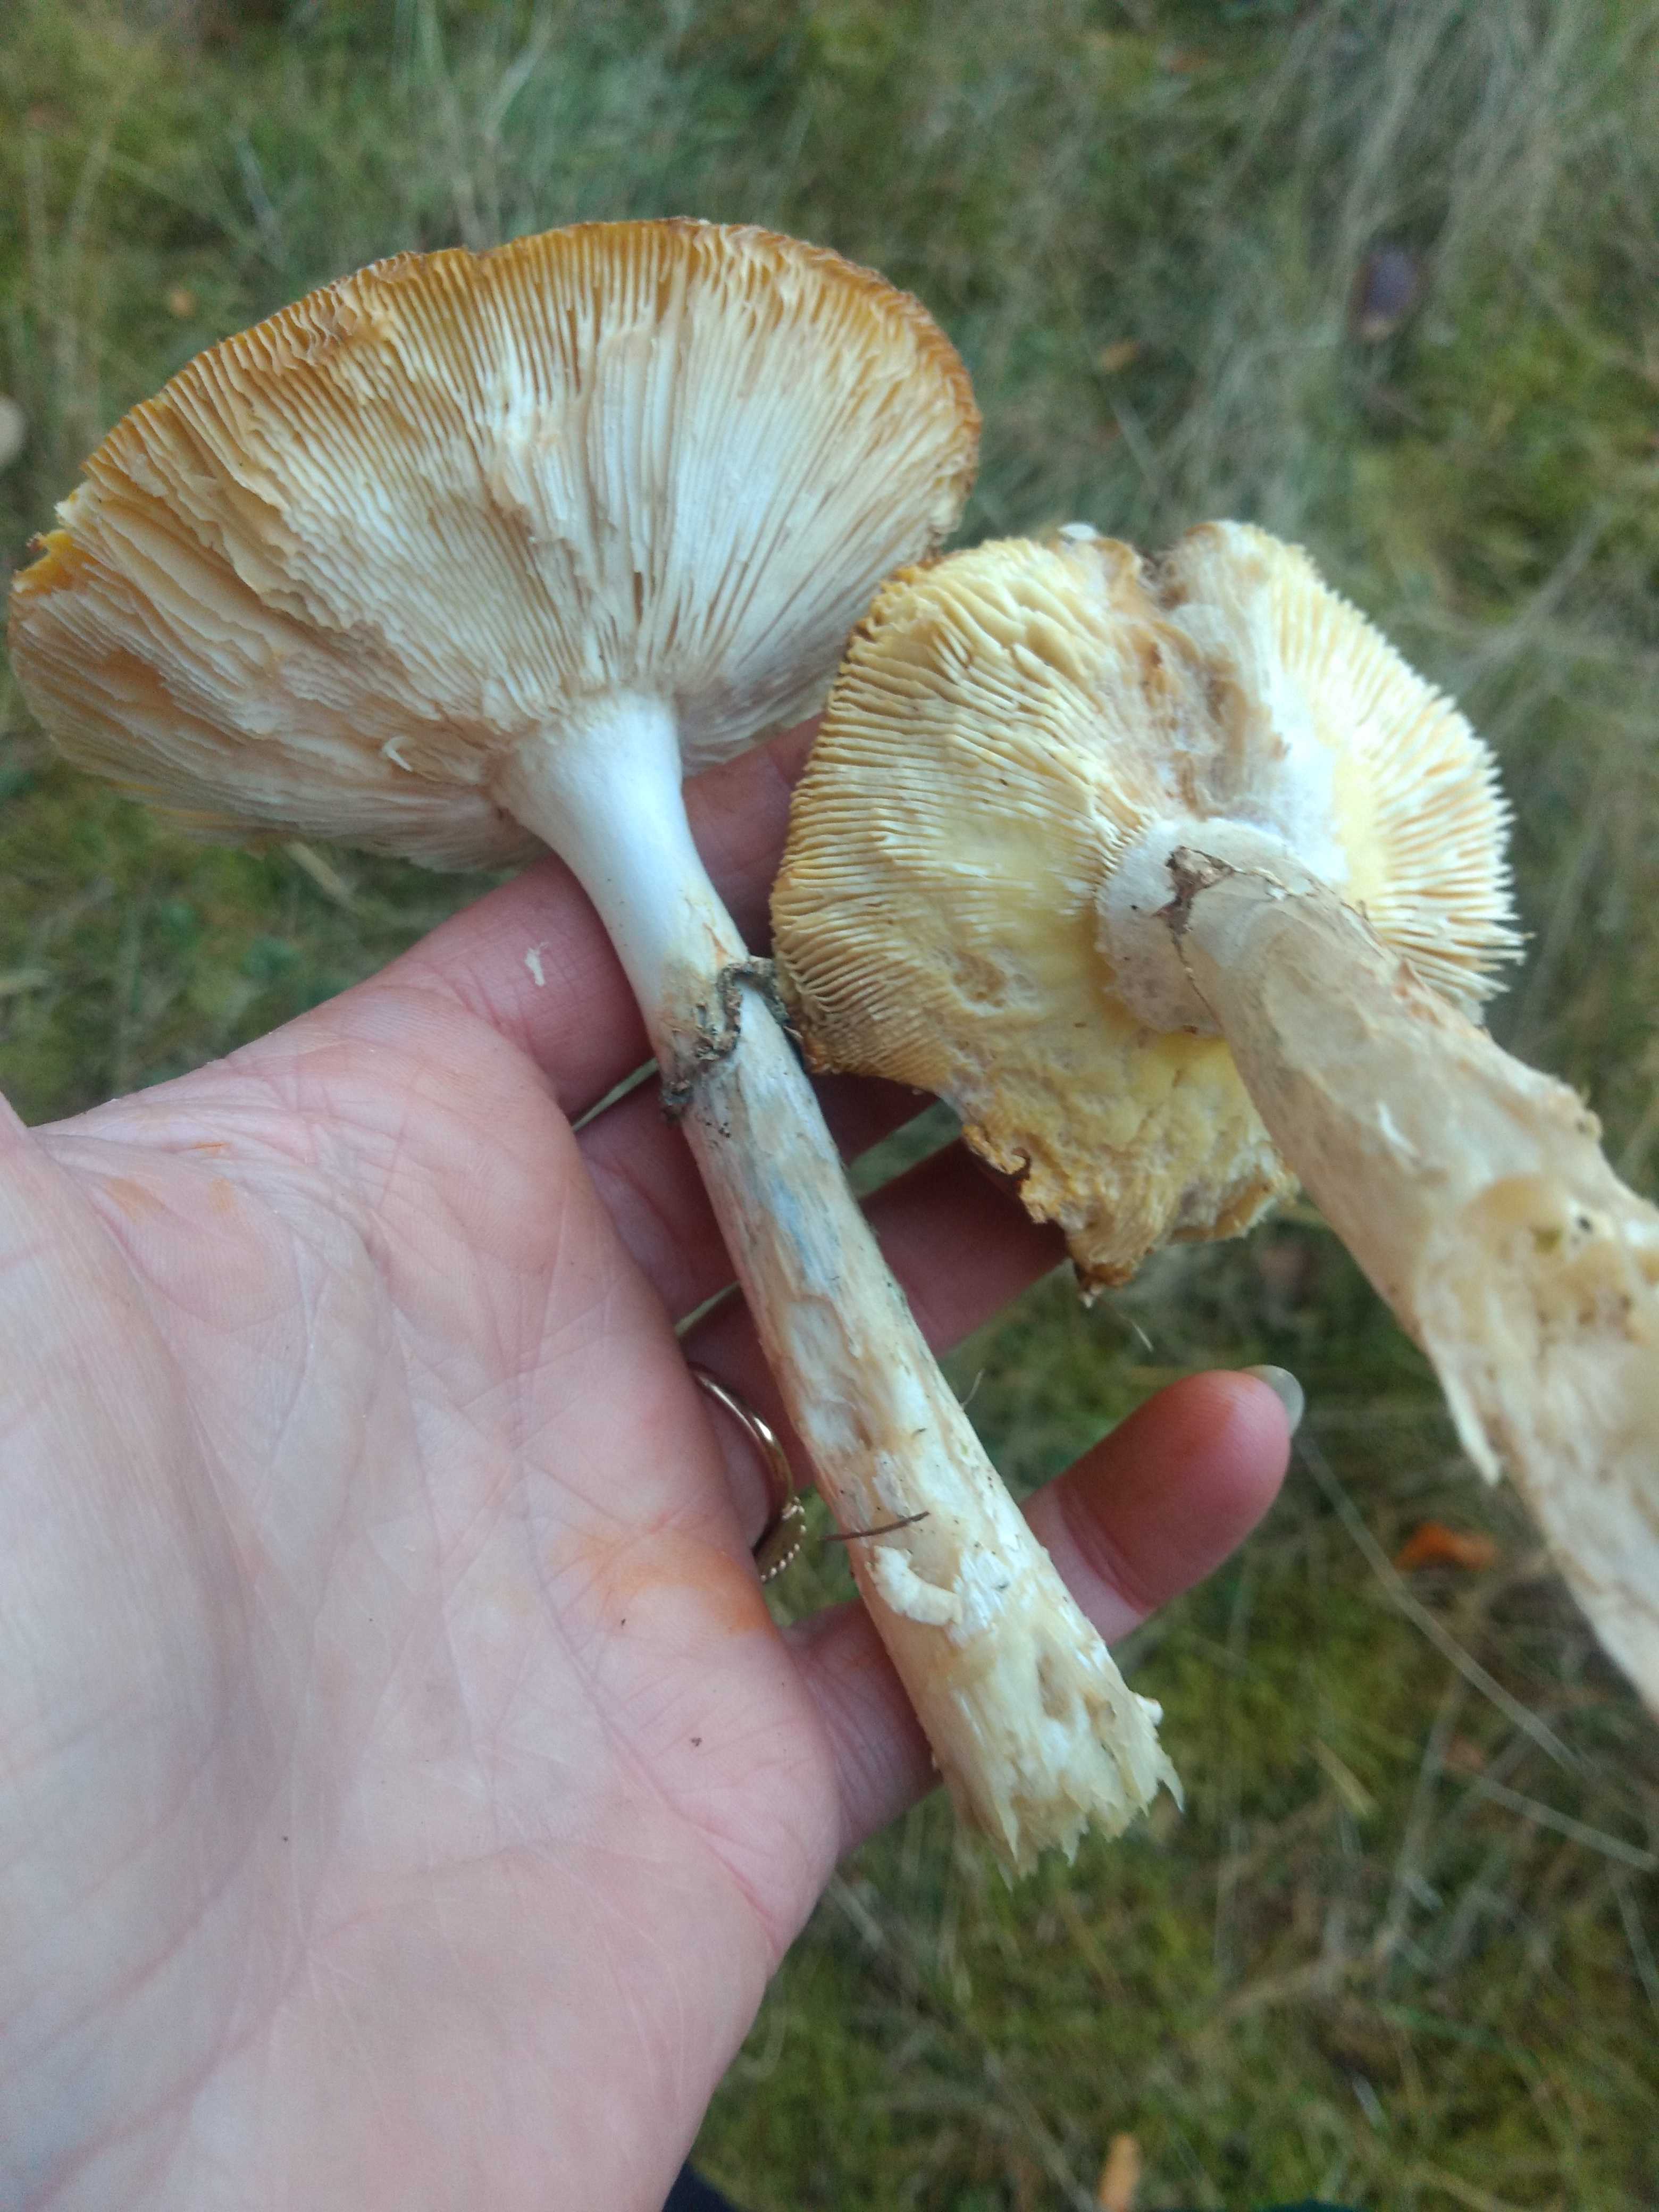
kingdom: Fungi
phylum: Basidiomycota
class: Agaricomycetes
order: Agaricales
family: Amanitaceae
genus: Amanita
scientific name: Amanita muscaria
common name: rød fluesvamp
